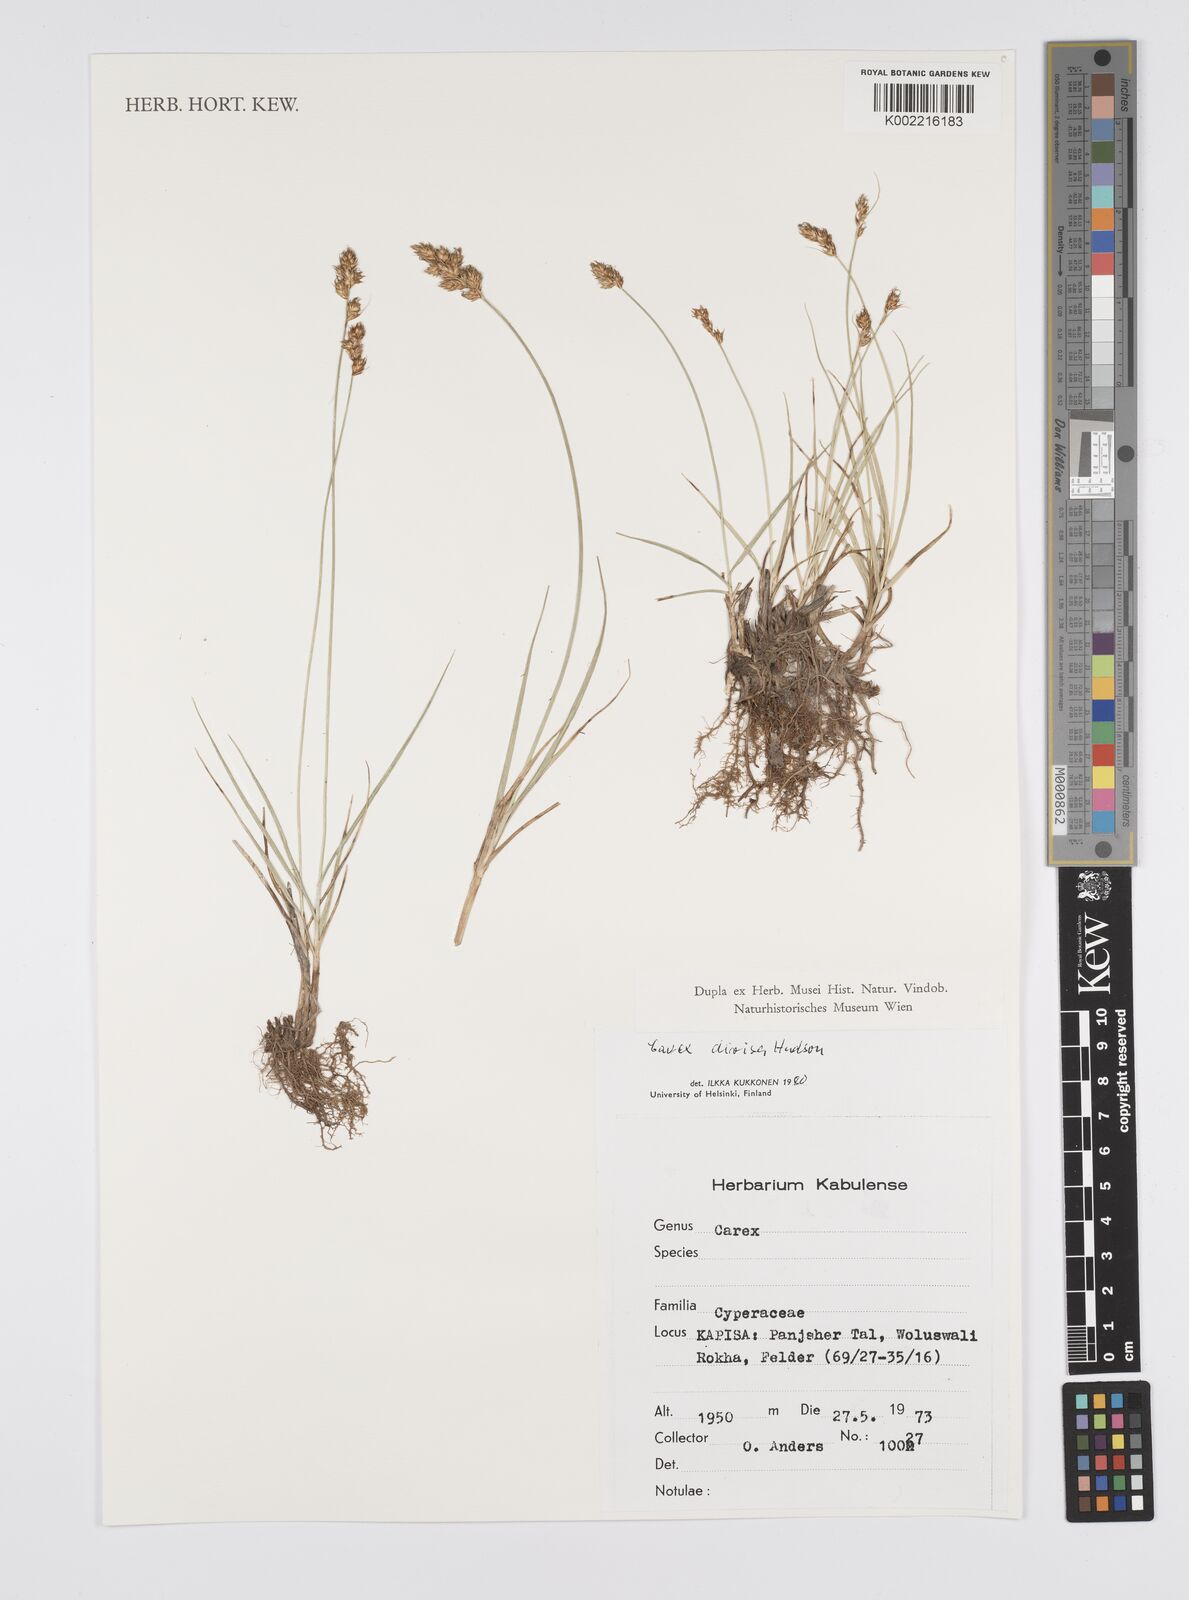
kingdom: Plantae
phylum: Tracheophyta
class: Liliopsida
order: Poales
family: Cyperaceae
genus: Carex
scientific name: Carex divisa
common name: Divided sedge
